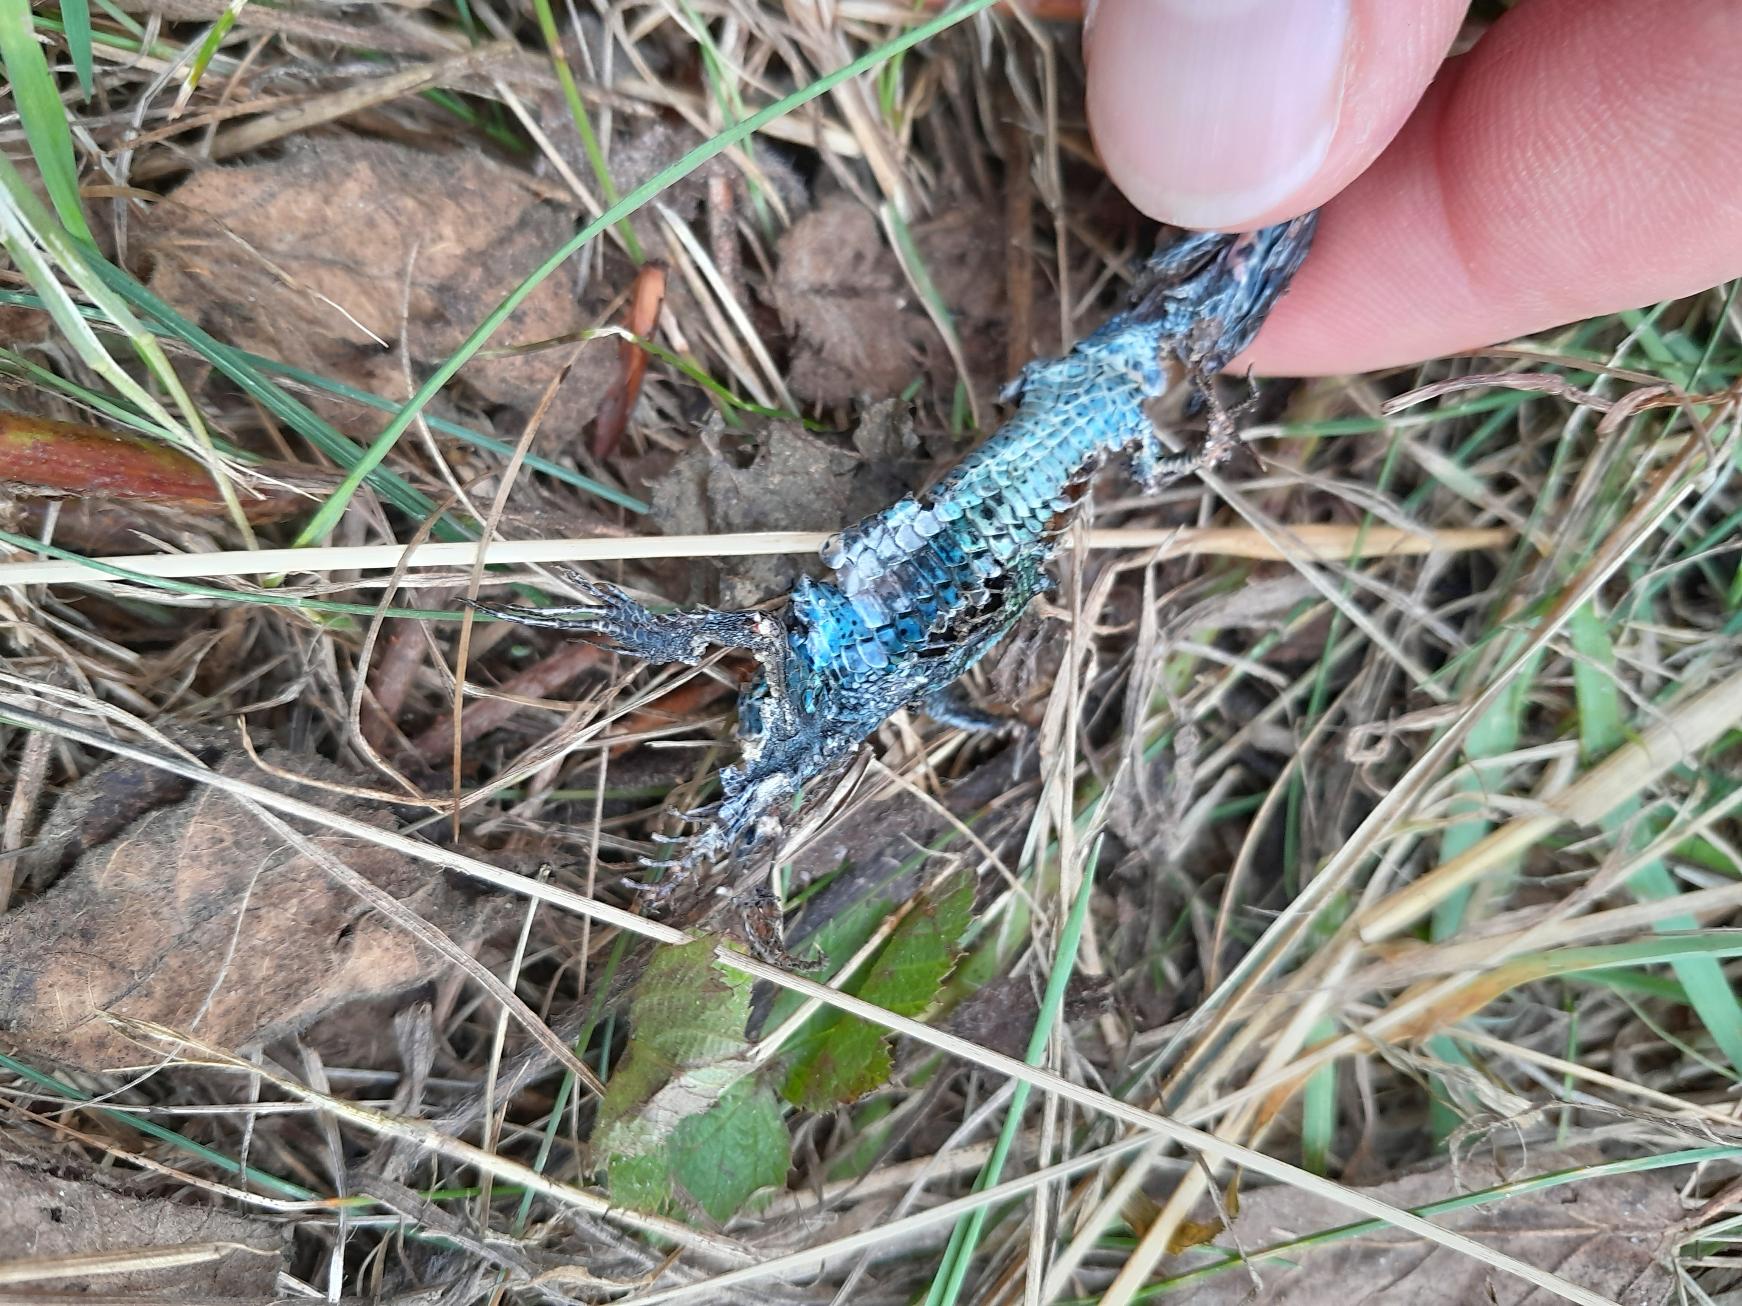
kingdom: Animalia
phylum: Chordata
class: Squamata
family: Lacertidae
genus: Lacerta
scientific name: Lacerta agilis
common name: Markfirben
